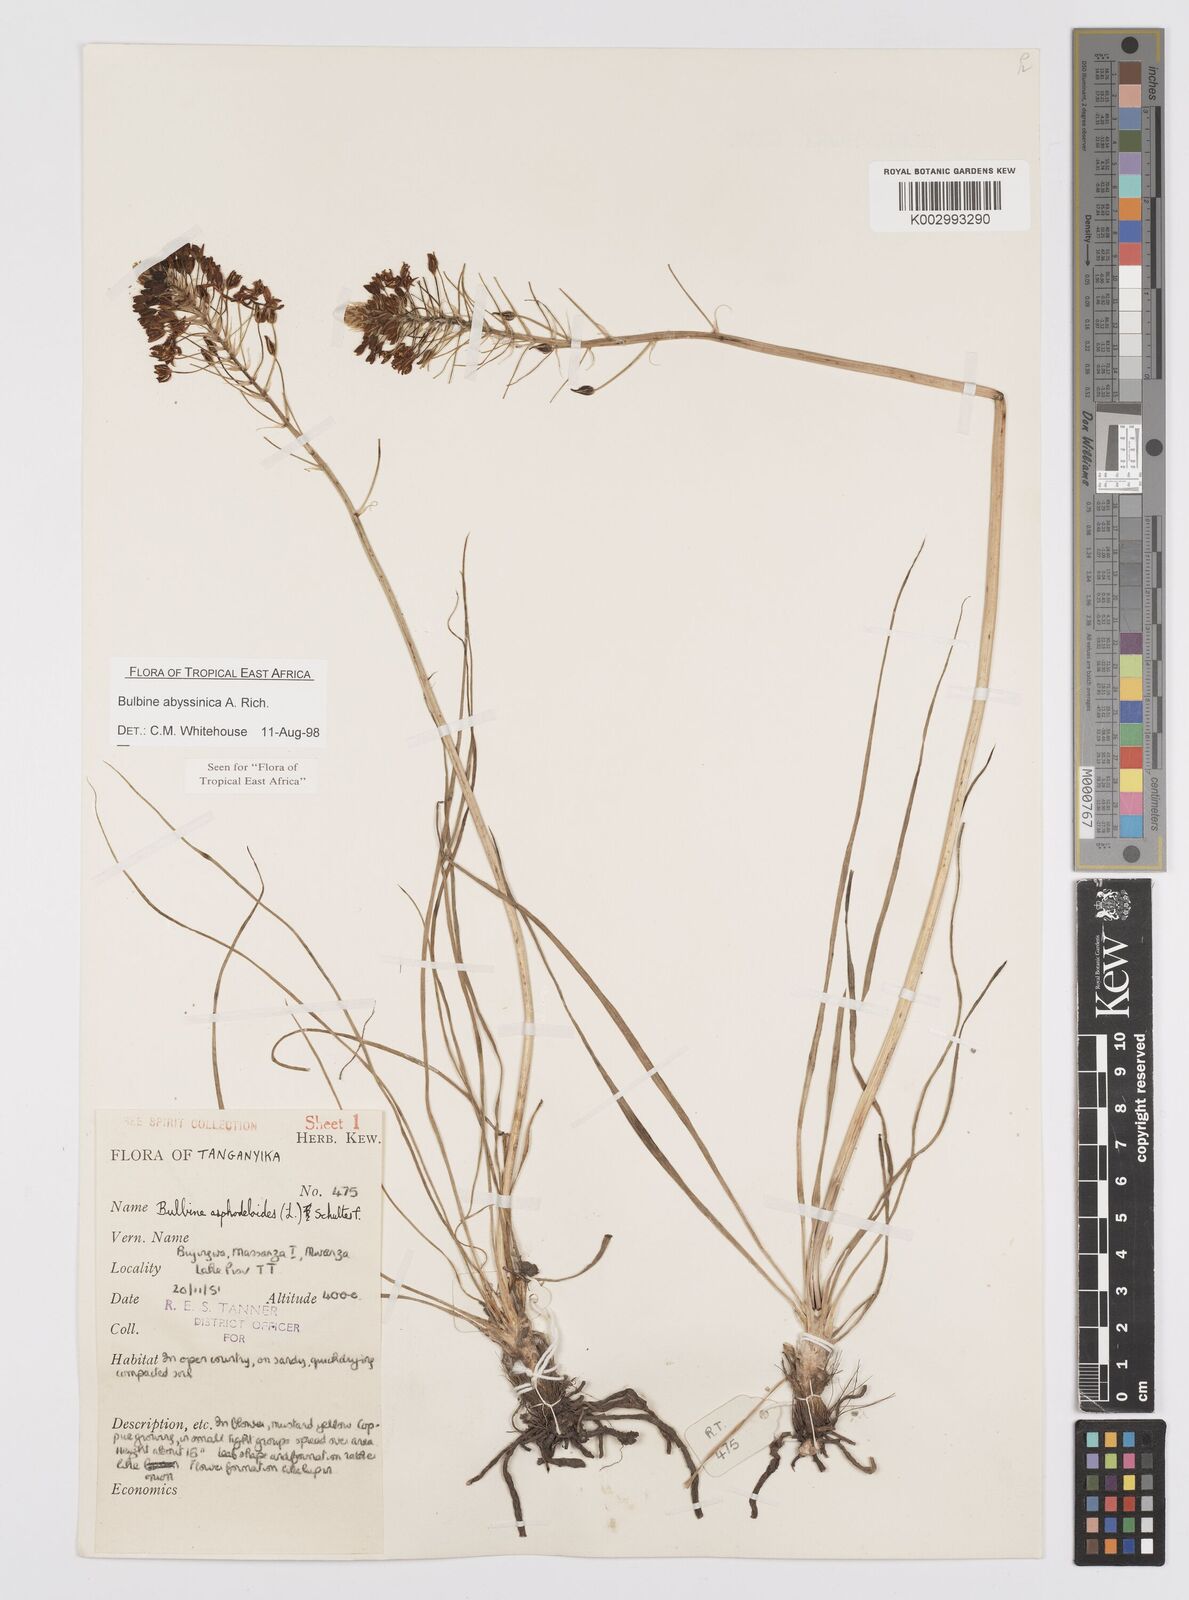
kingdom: Plantae
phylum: Tracheophyta
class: Liliopsida
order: Asparagales
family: Asphodelaceae
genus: Bulbine
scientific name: Bulbine abyssinica
